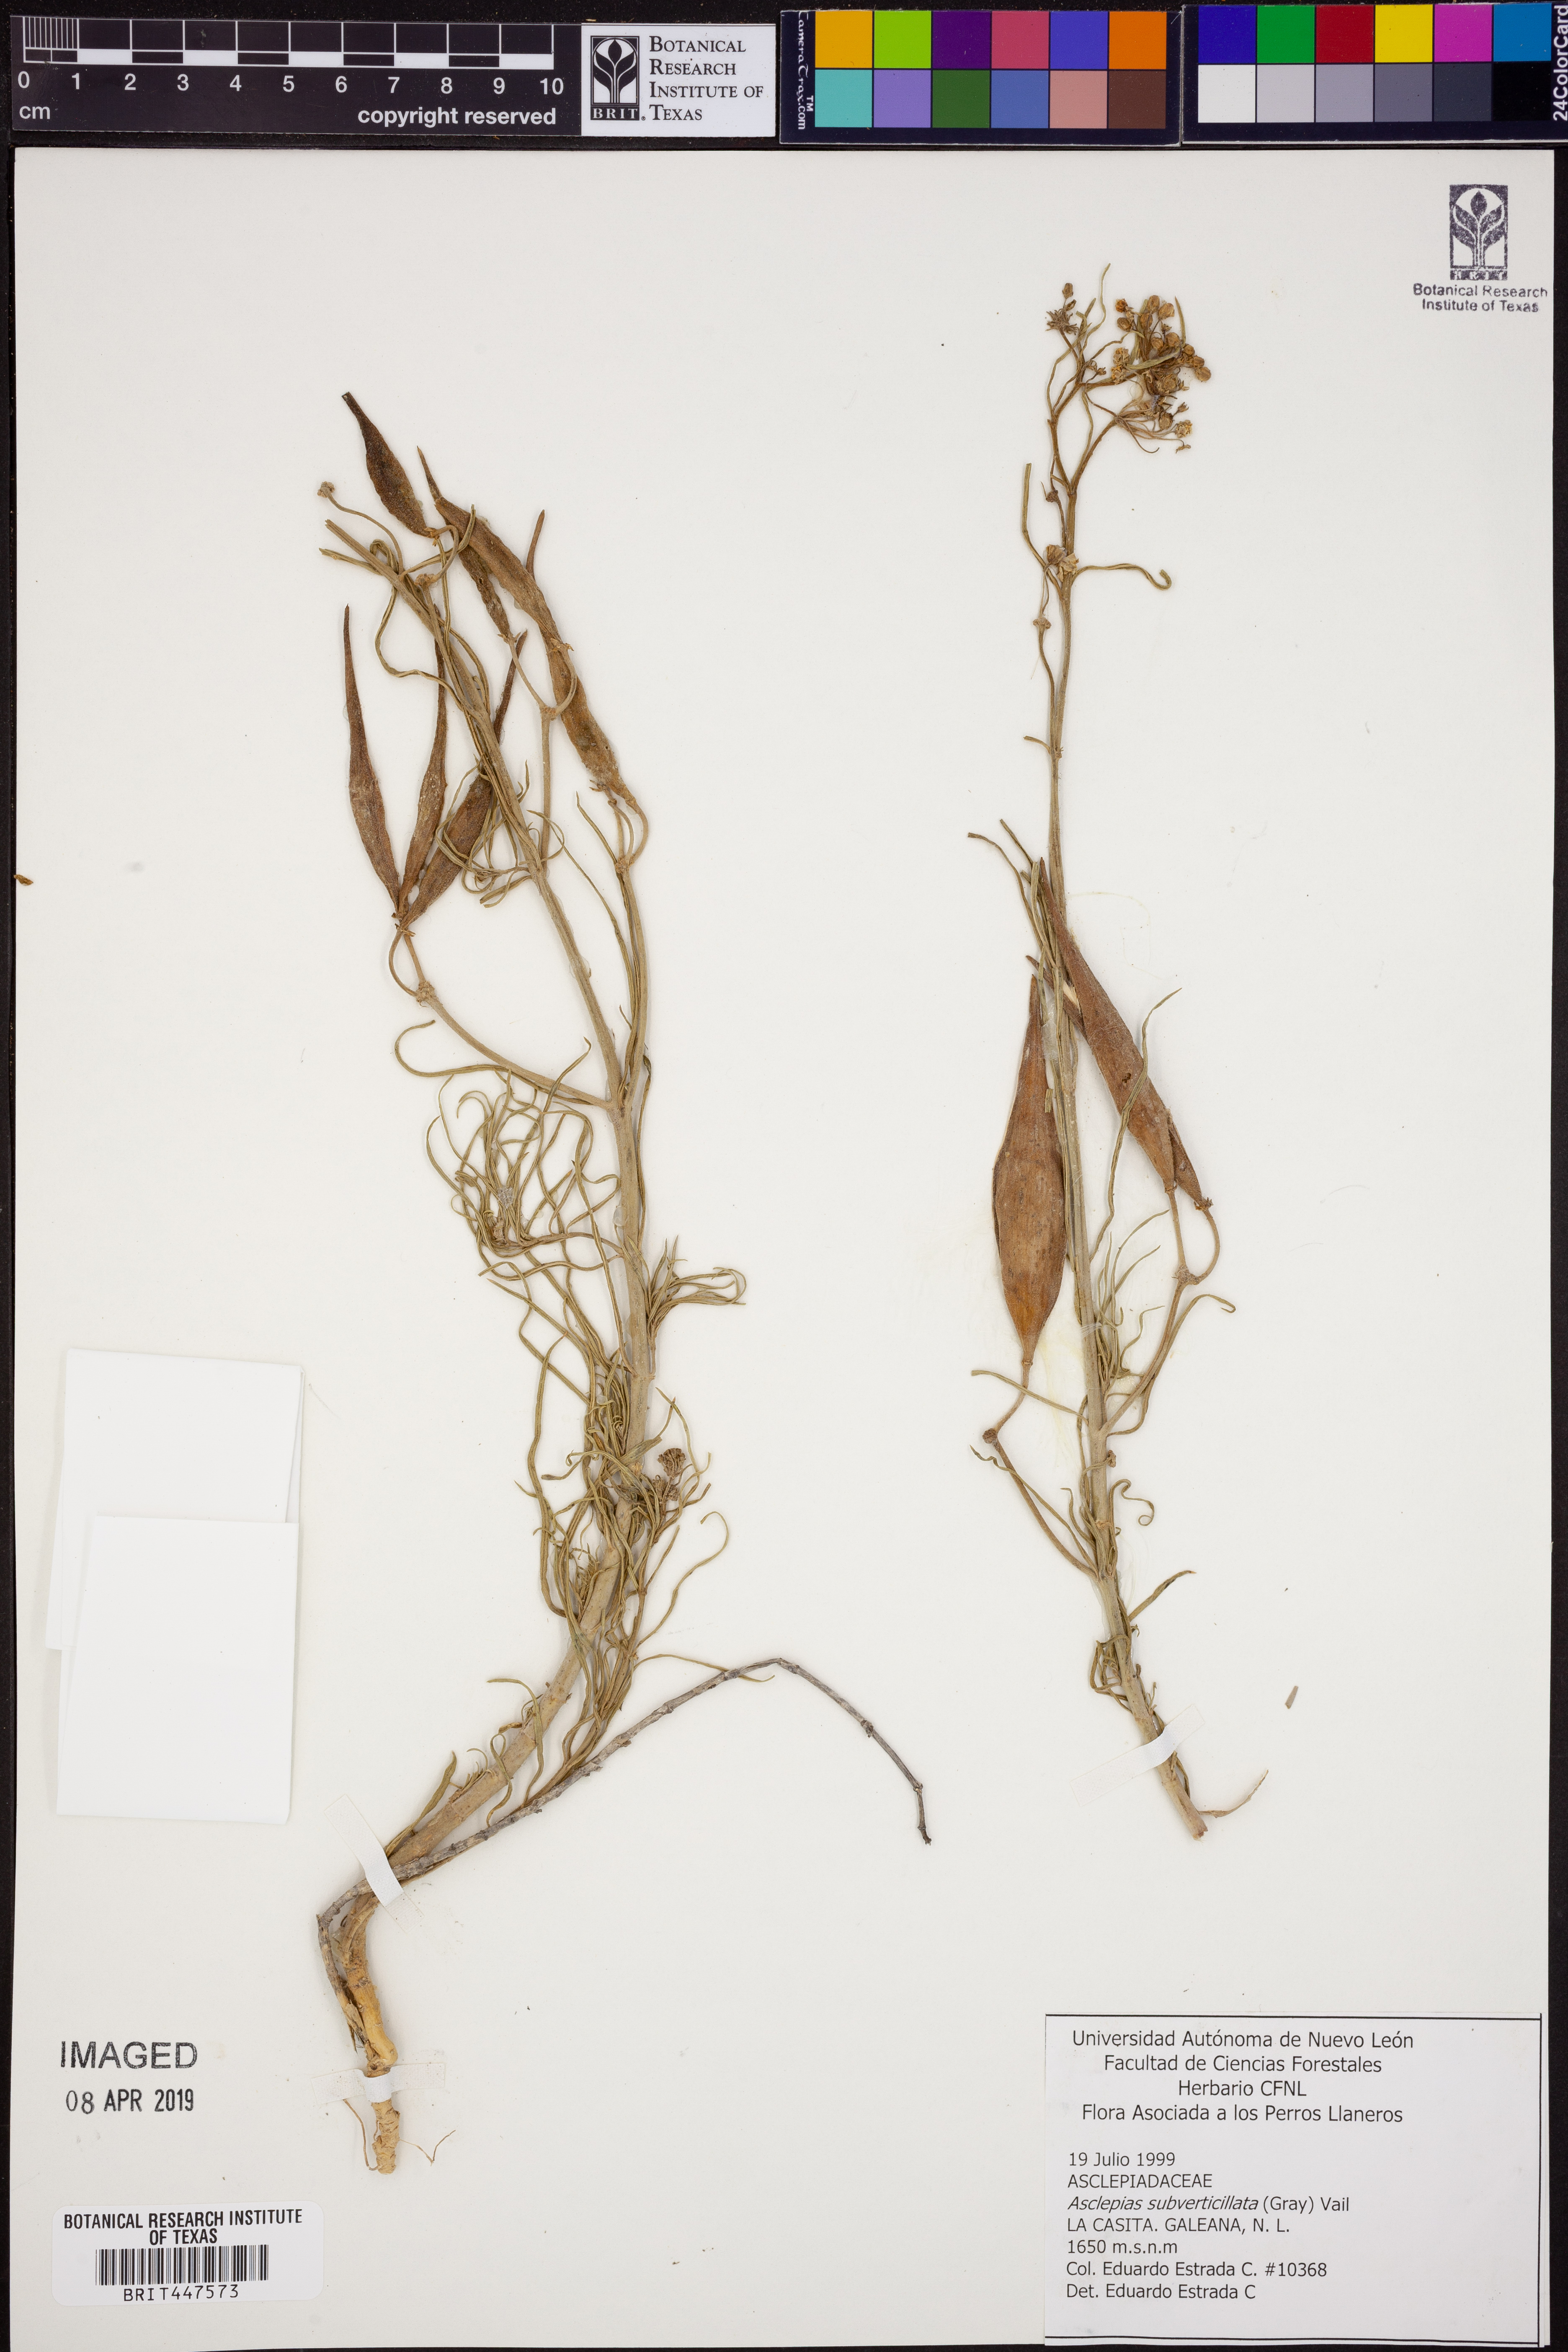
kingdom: Plantae
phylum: Tracheophyta
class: Magnoliopsida
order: Gentianales
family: Apocynaceae
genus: Asclepias
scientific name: Asclepias subverticillata
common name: Horsetail milkweed
